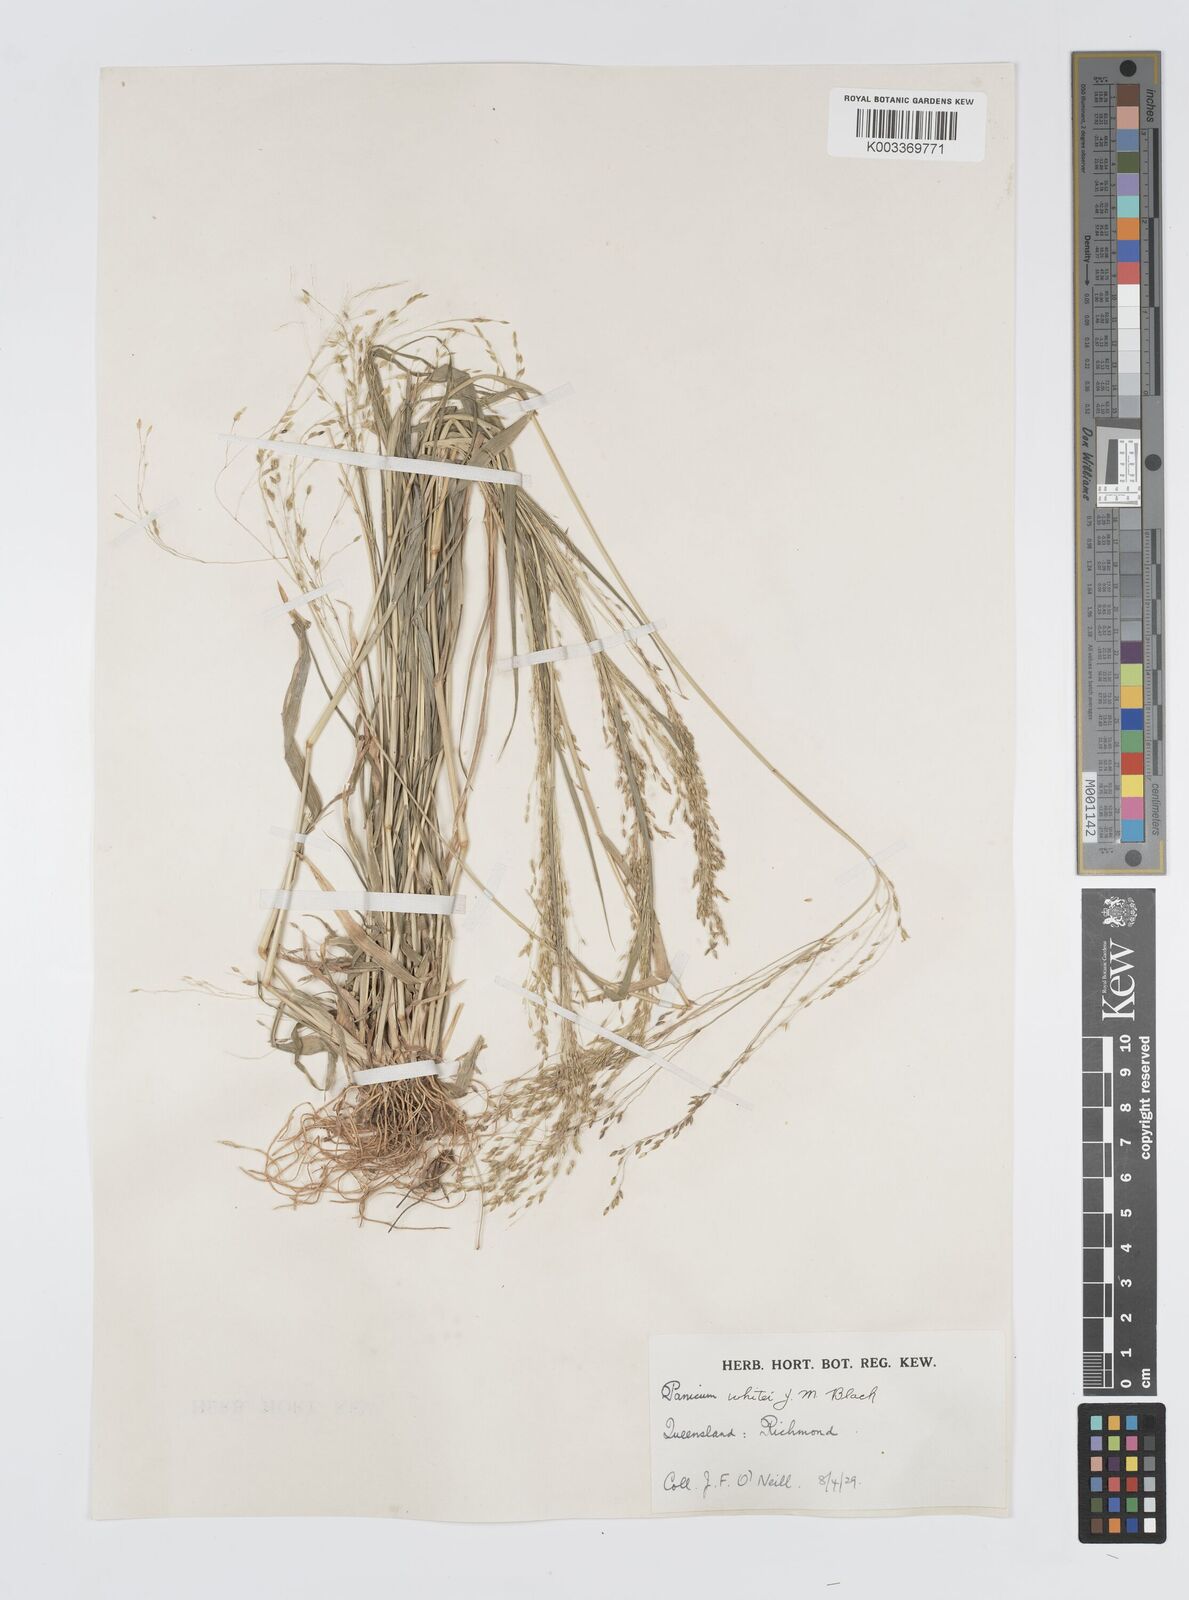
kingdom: Plantae
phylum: Tracheophyta
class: Liliopsida
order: Poales
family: Poaceae
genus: Panicum
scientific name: Panicum laevinode
